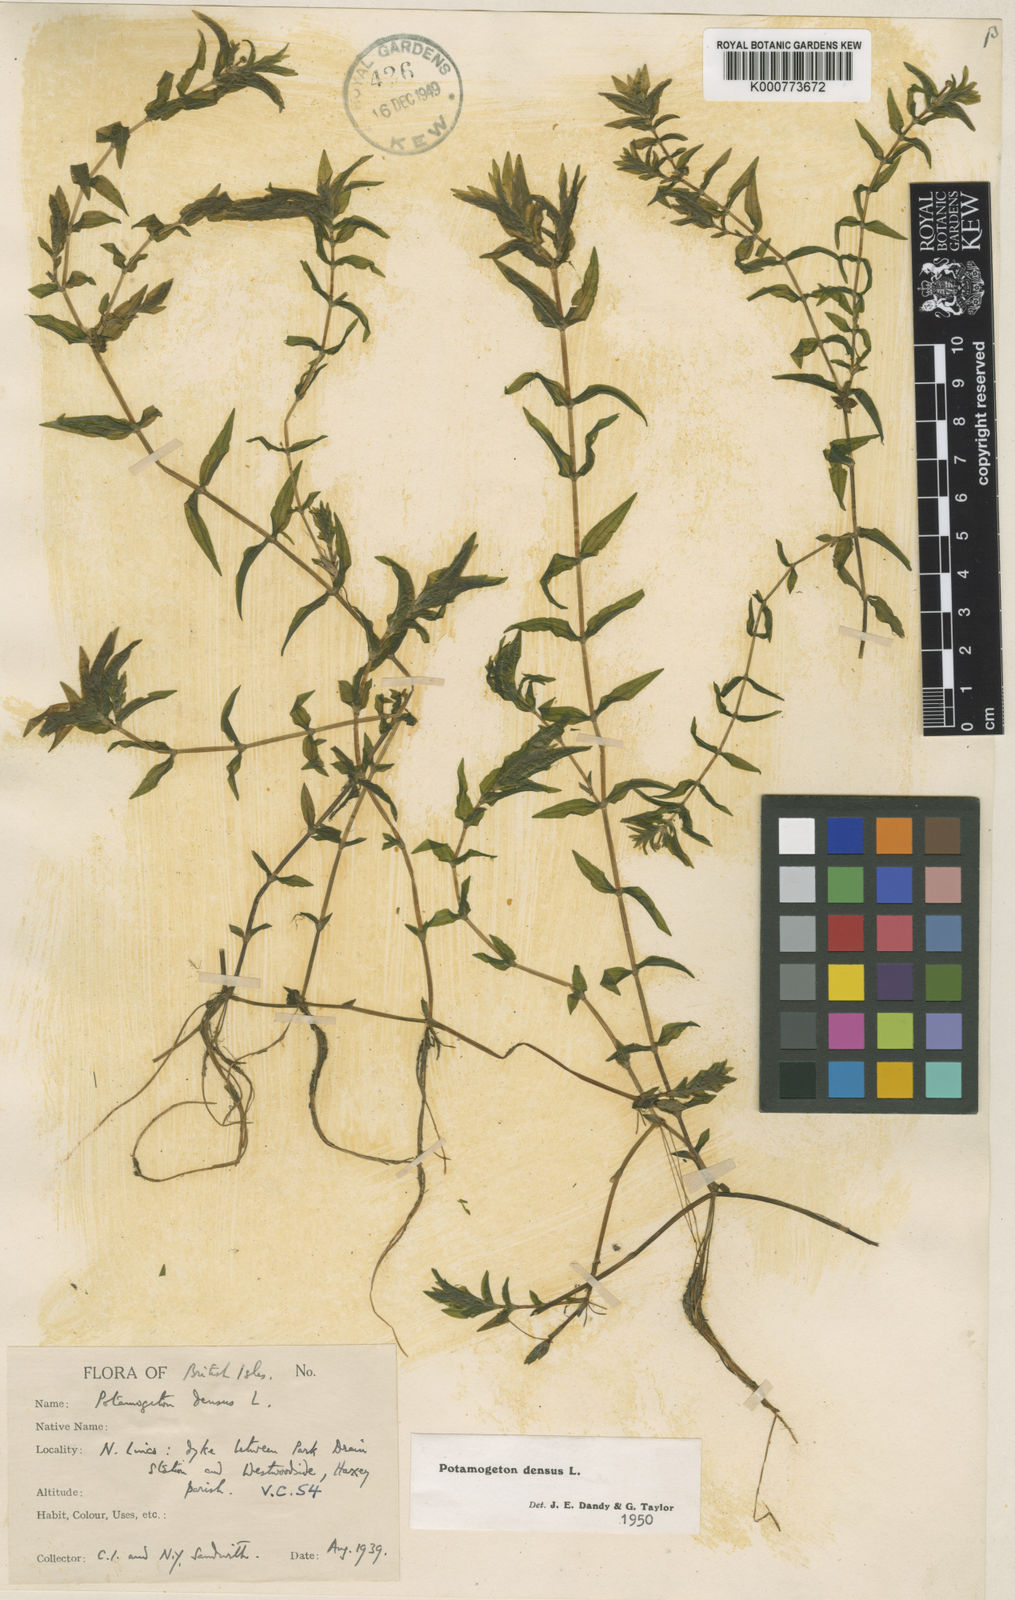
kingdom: Plantae
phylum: Tracheophyta
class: Liliopsida
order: Alismatales
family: Potamogetonaceae
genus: Groenlandia
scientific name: Groenlandia densa
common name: Opposite-leaved pondweed
